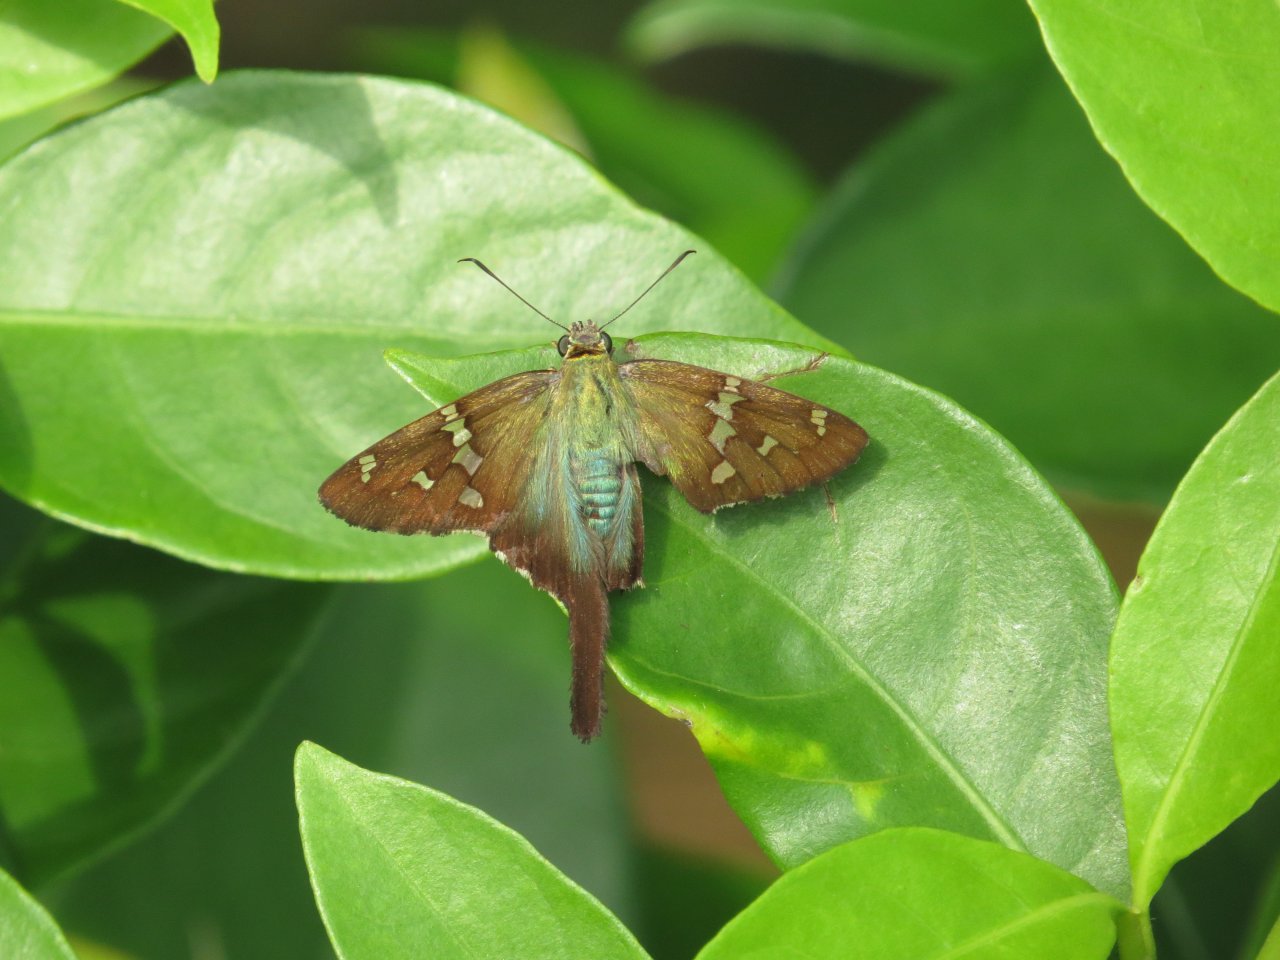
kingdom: Animalia
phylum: Arthropoda
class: Insecta
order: Lepidoptera
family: Hesperiidae
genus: Urbanus
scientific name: Urbanus proteus
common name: Long-tailed Skipper
